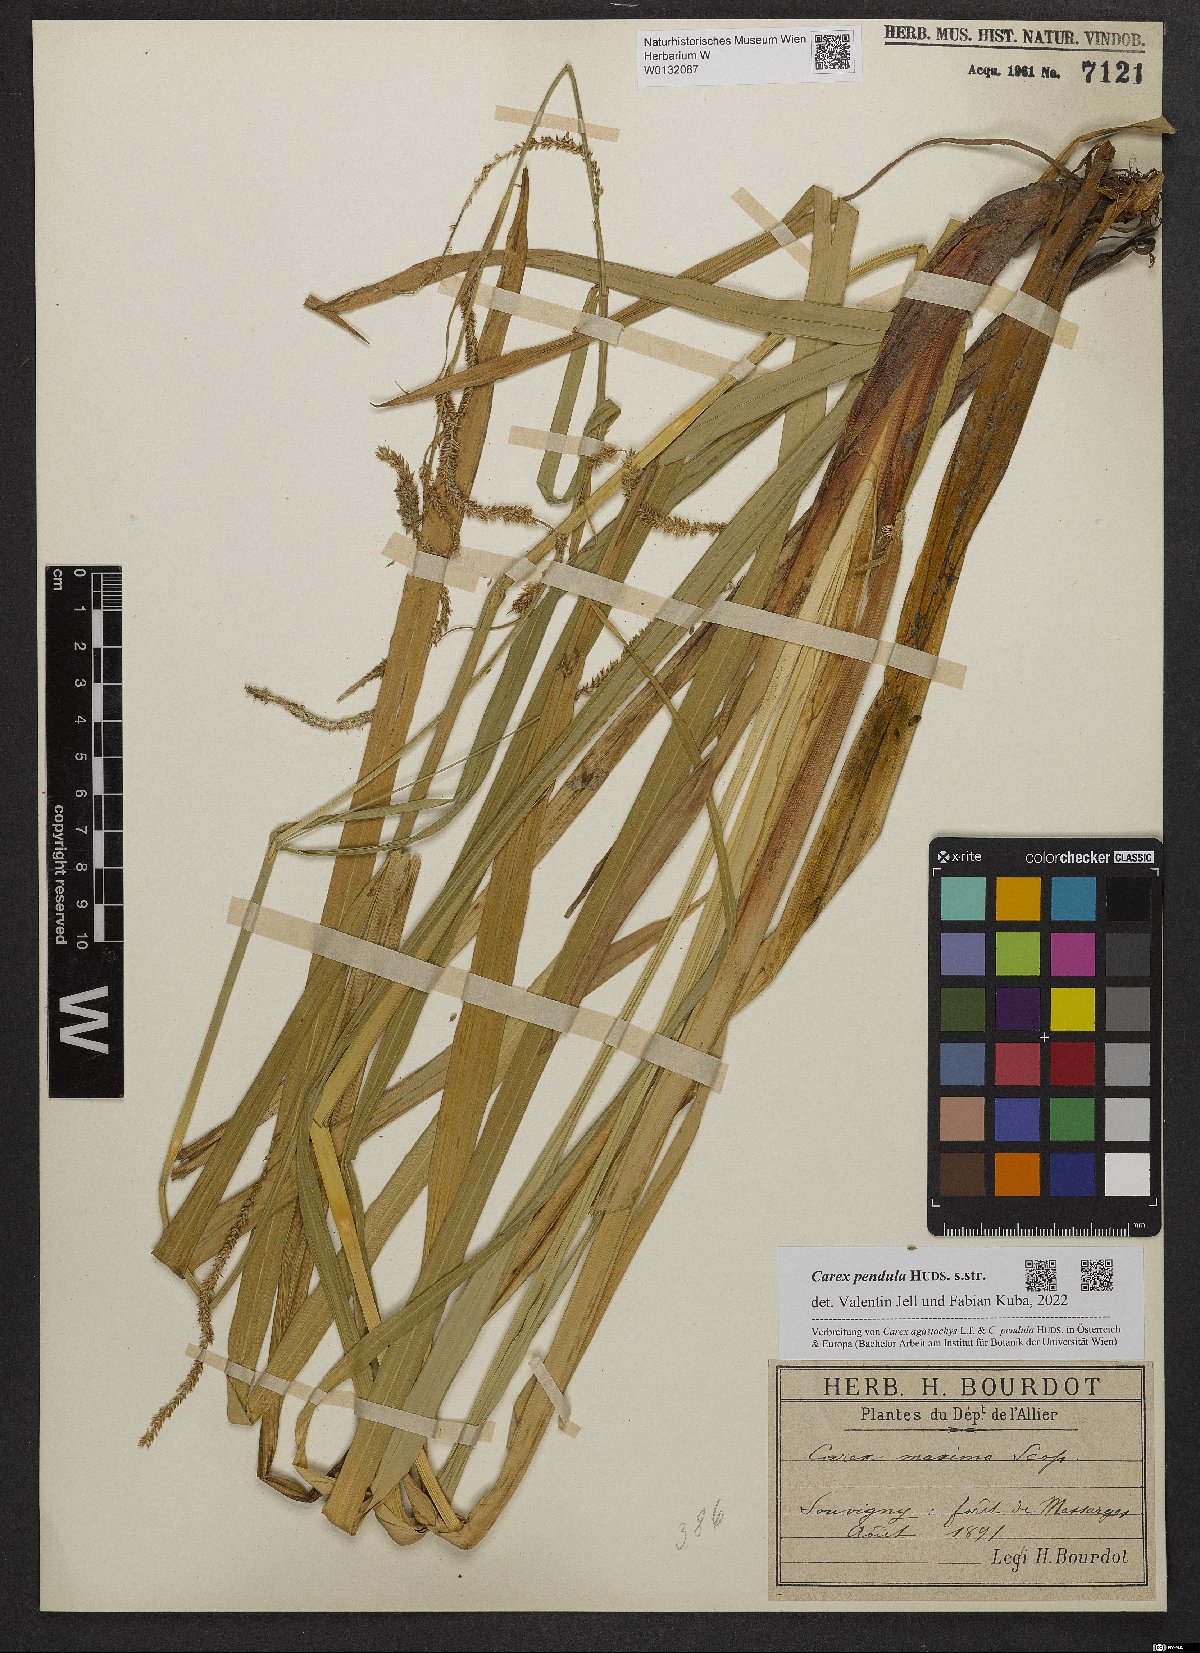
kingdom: Plantae
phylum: Tracheophyta
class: Liliopsida
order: Poales
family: Cyperaceae
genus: Carex
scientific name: Carex pendula
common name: Pendulous sedge
